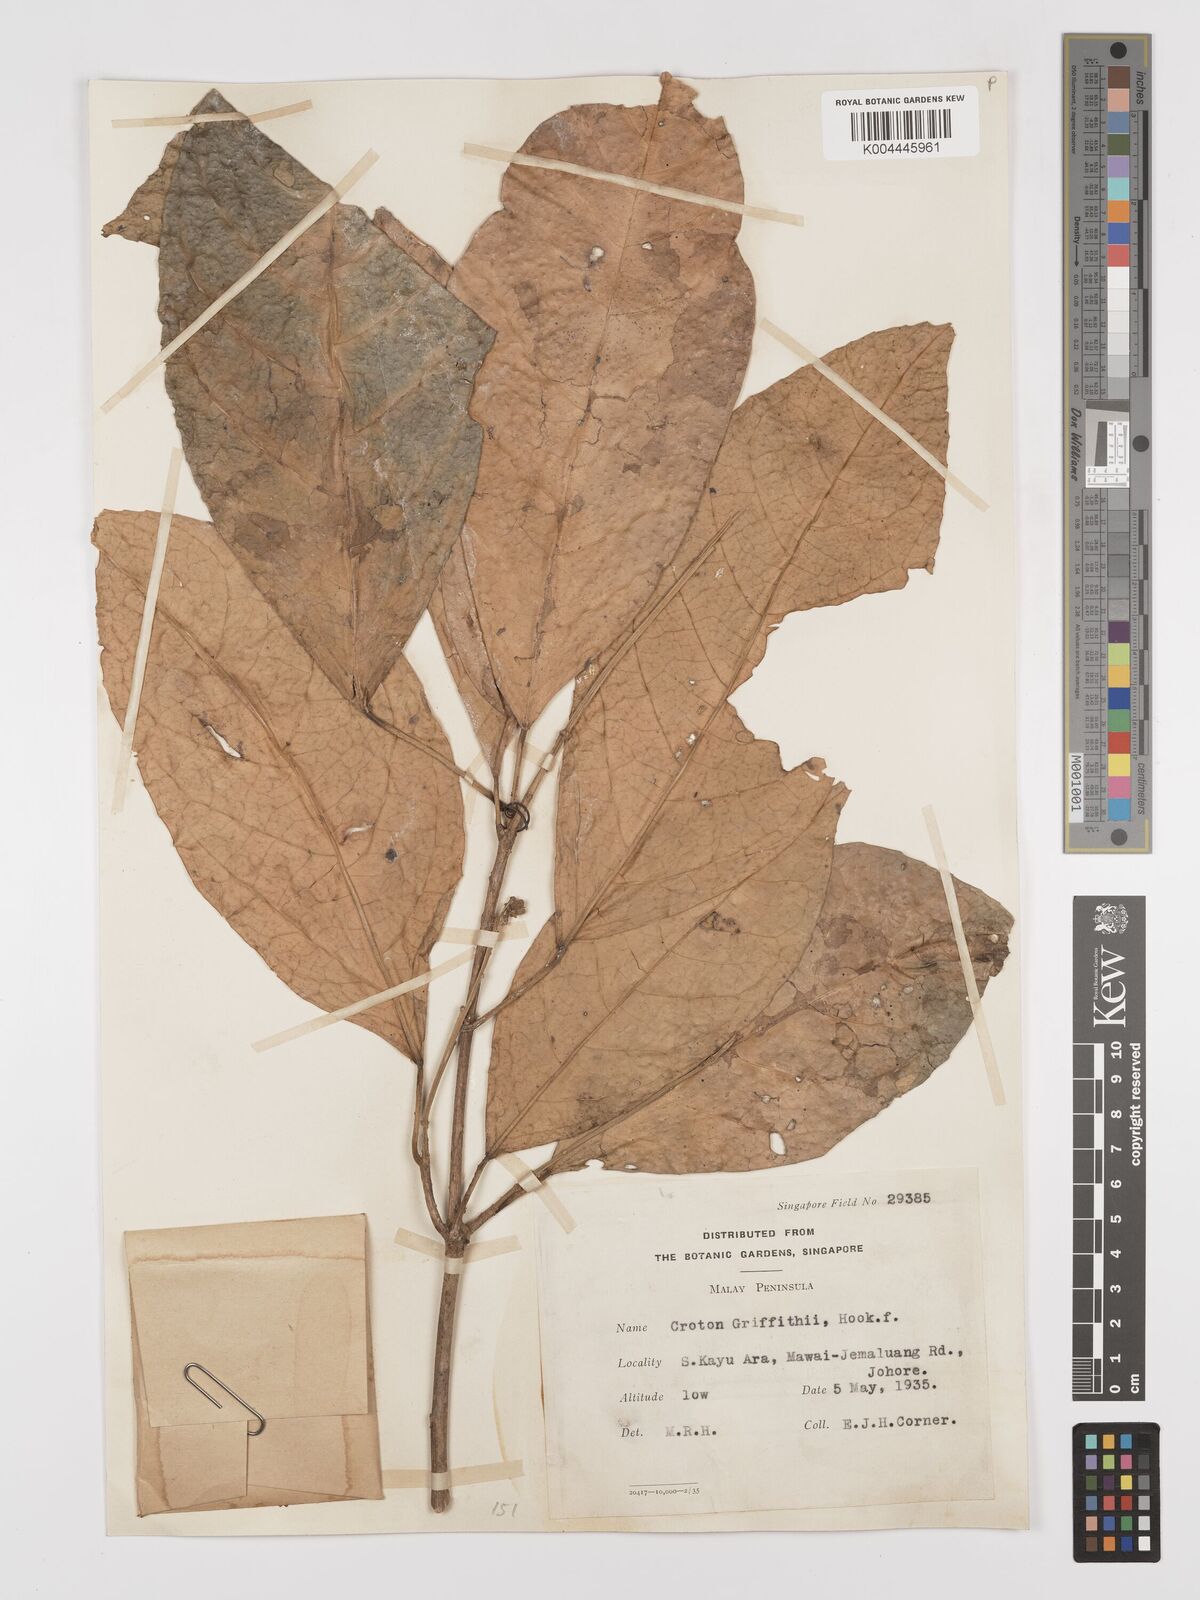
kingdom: Plantae
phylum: Tracheophyta
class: Magnoliopsida
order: Malpighiales
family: Euphorbiaceae
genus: Croton
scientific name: Croton griffithii
